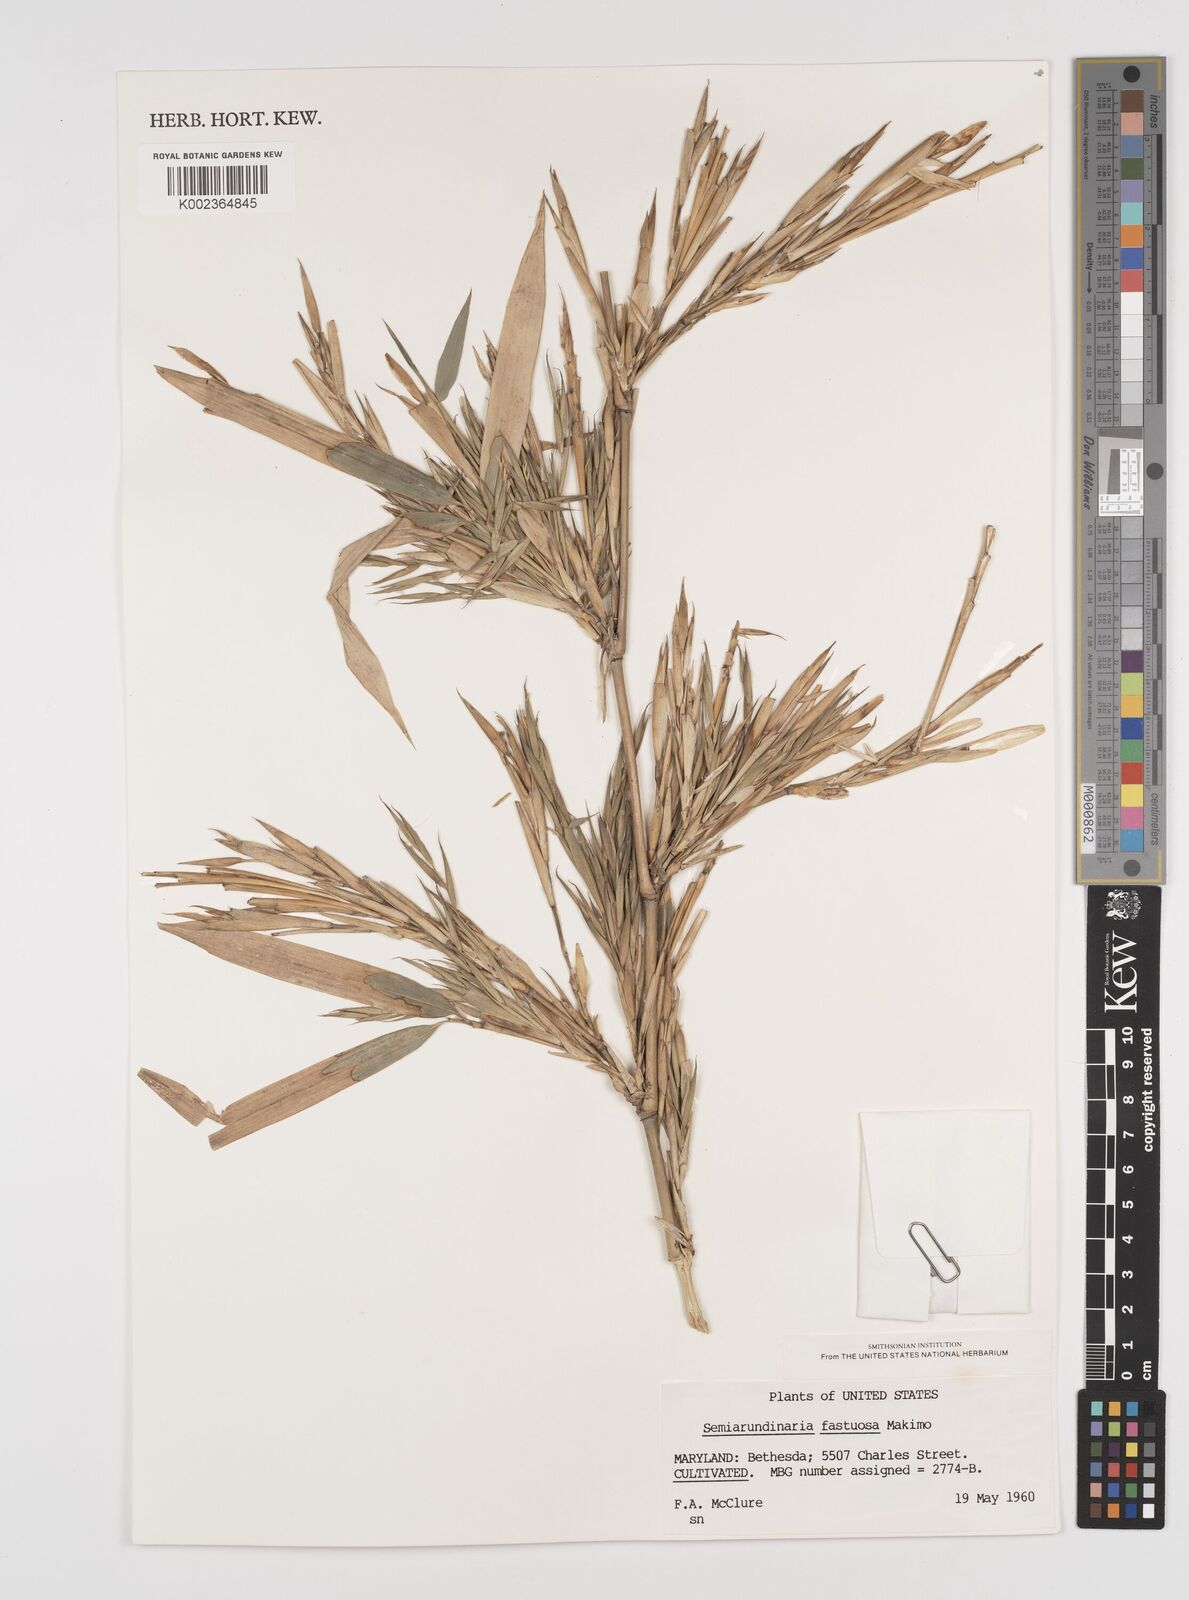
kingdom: Plantae
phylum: Tracheophyta
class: Liliopsida
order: Poales
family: Poaceae
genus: Semiarundinaria
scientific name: Semiarundinaria
